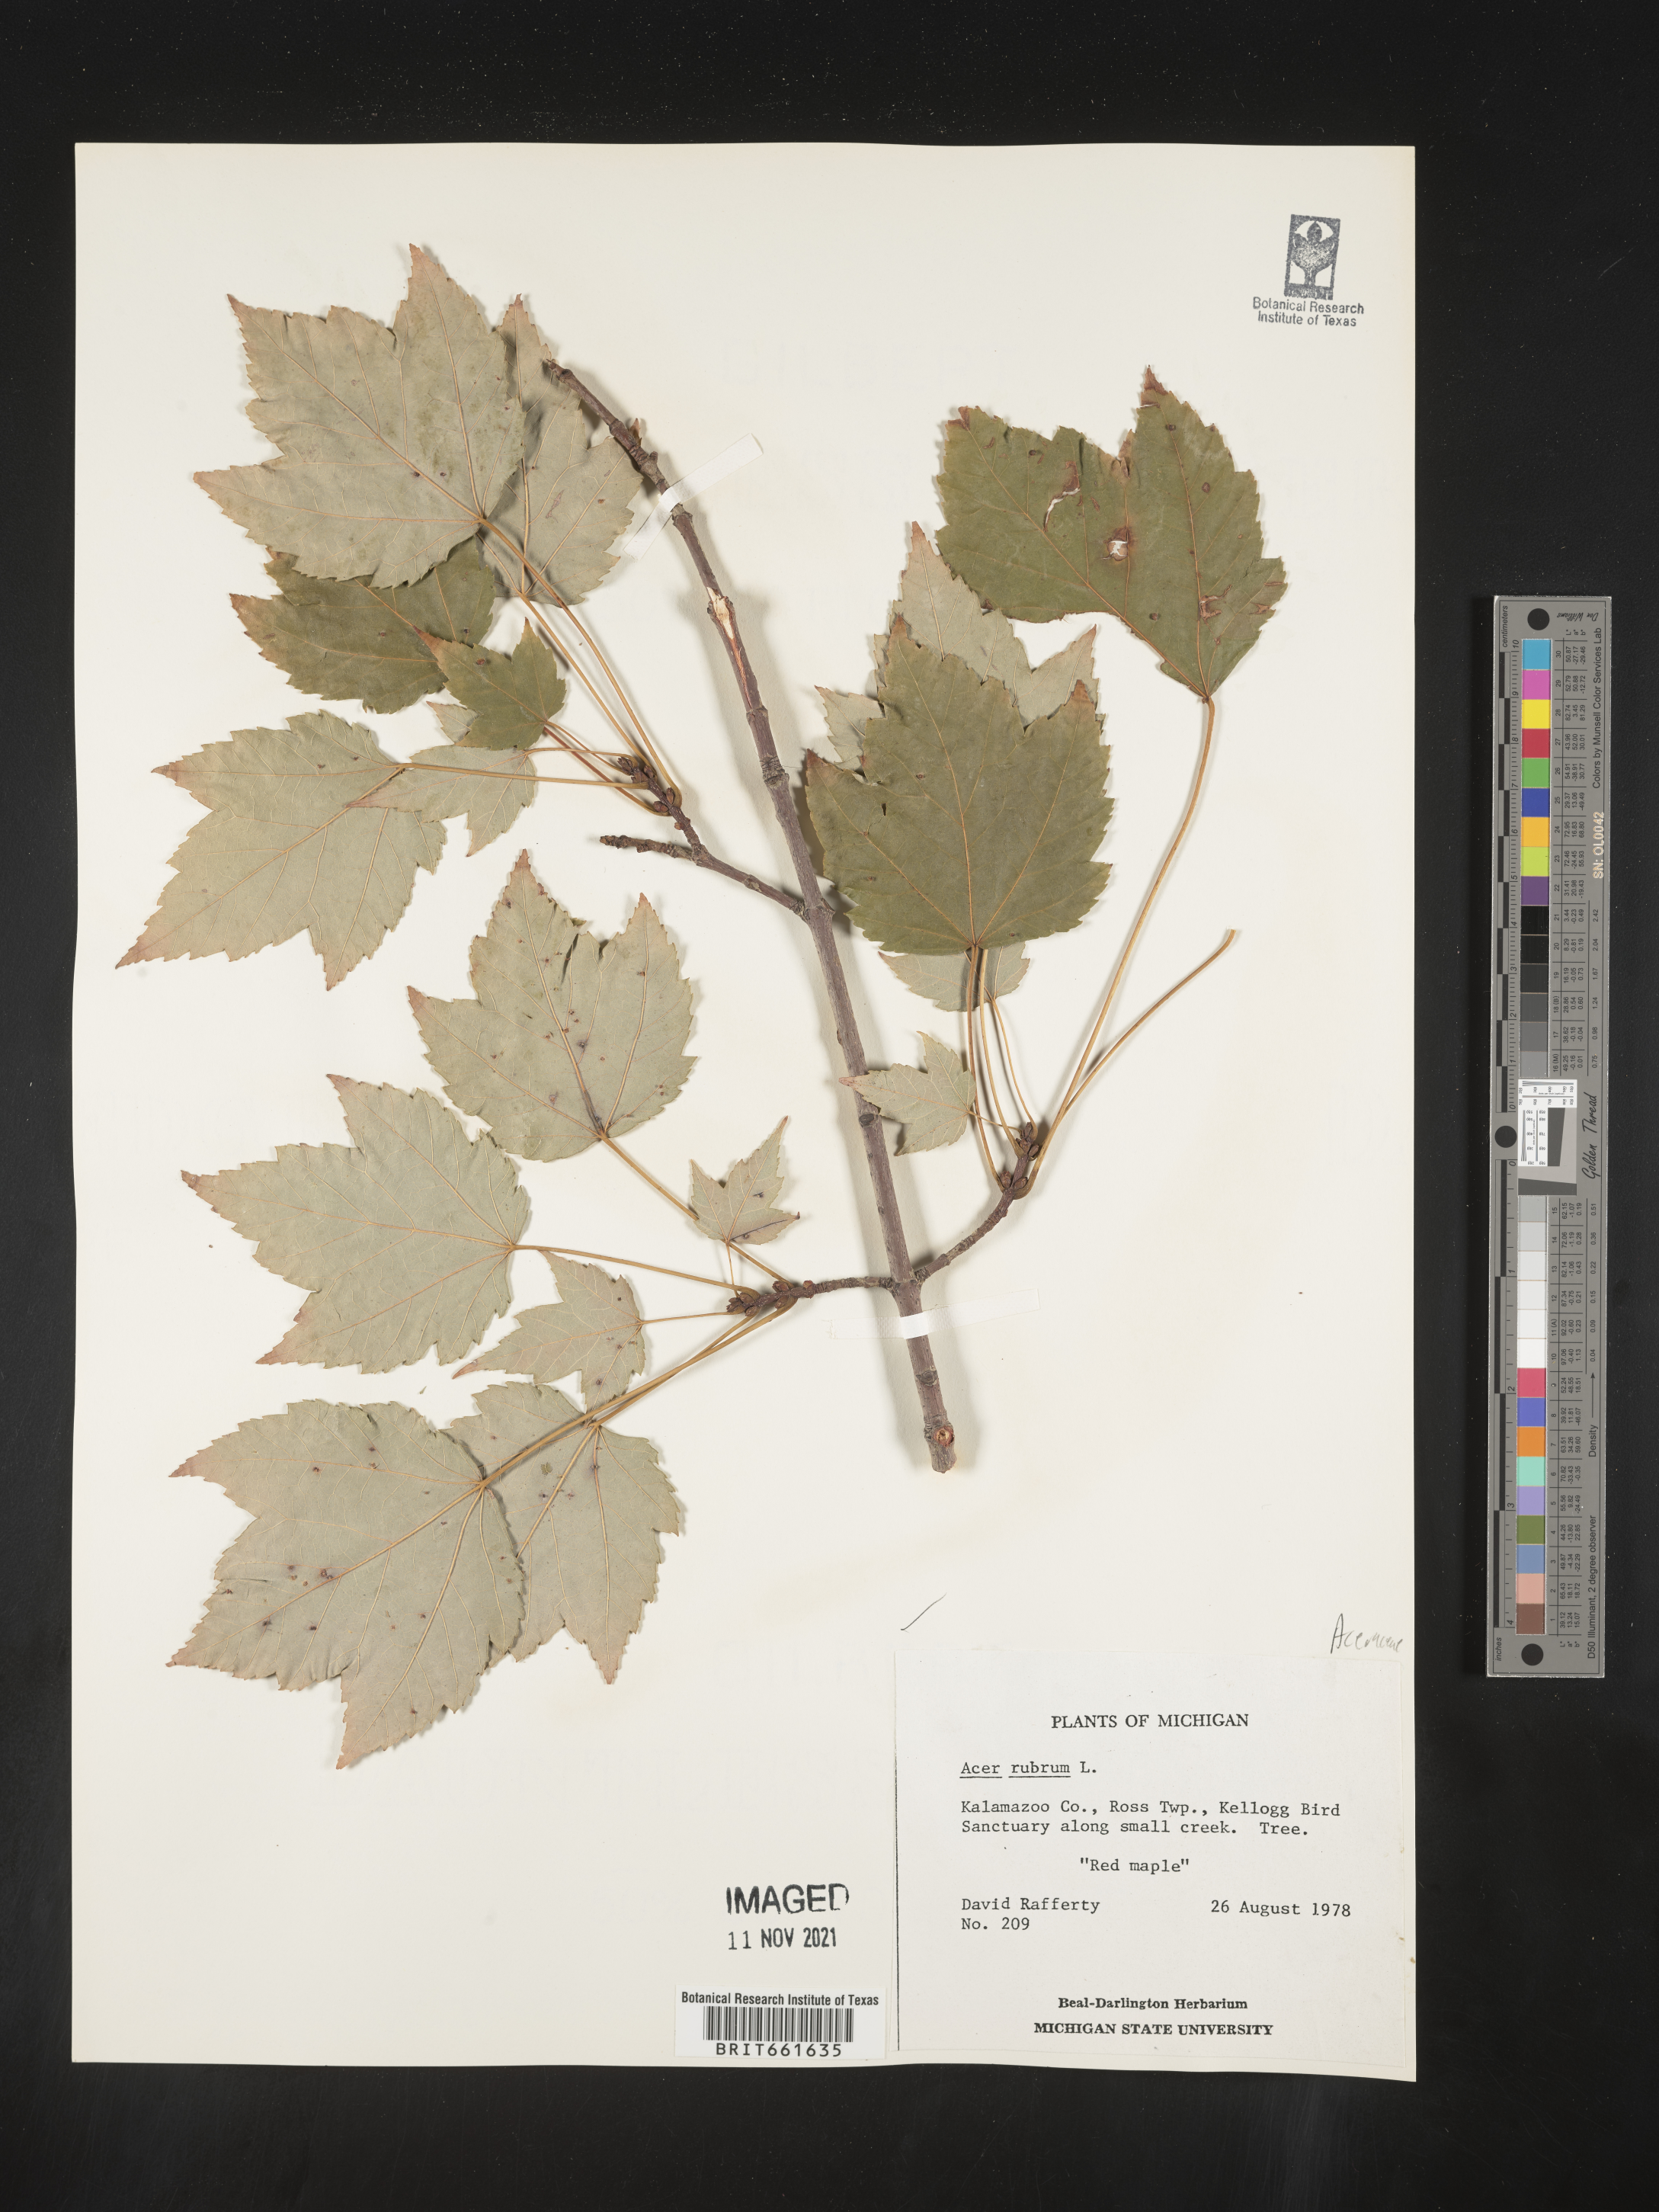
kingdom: Plantae
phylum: Tracheophyta
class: Magnoliopsida
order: Sapindales
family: Sapindaceae
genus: Acer
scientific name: Acer rubrum
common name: Red maple
